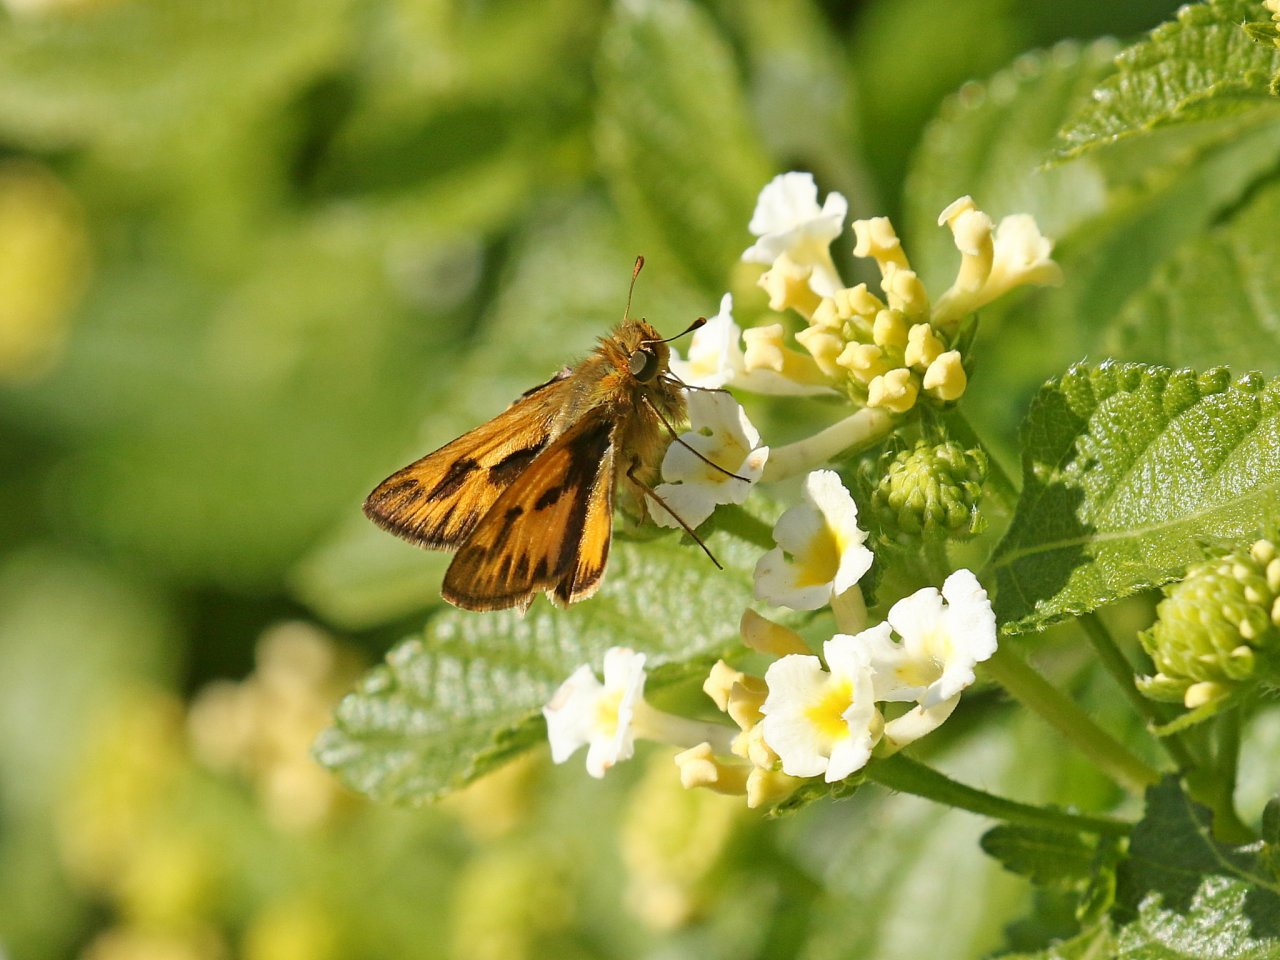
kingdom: Animalia
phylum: Arthropoda
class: Insecta
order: Lepidoptera
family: Hesperiidae
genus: Hylephila
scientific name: Hylephila phyleus
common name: Fiery Skipper
